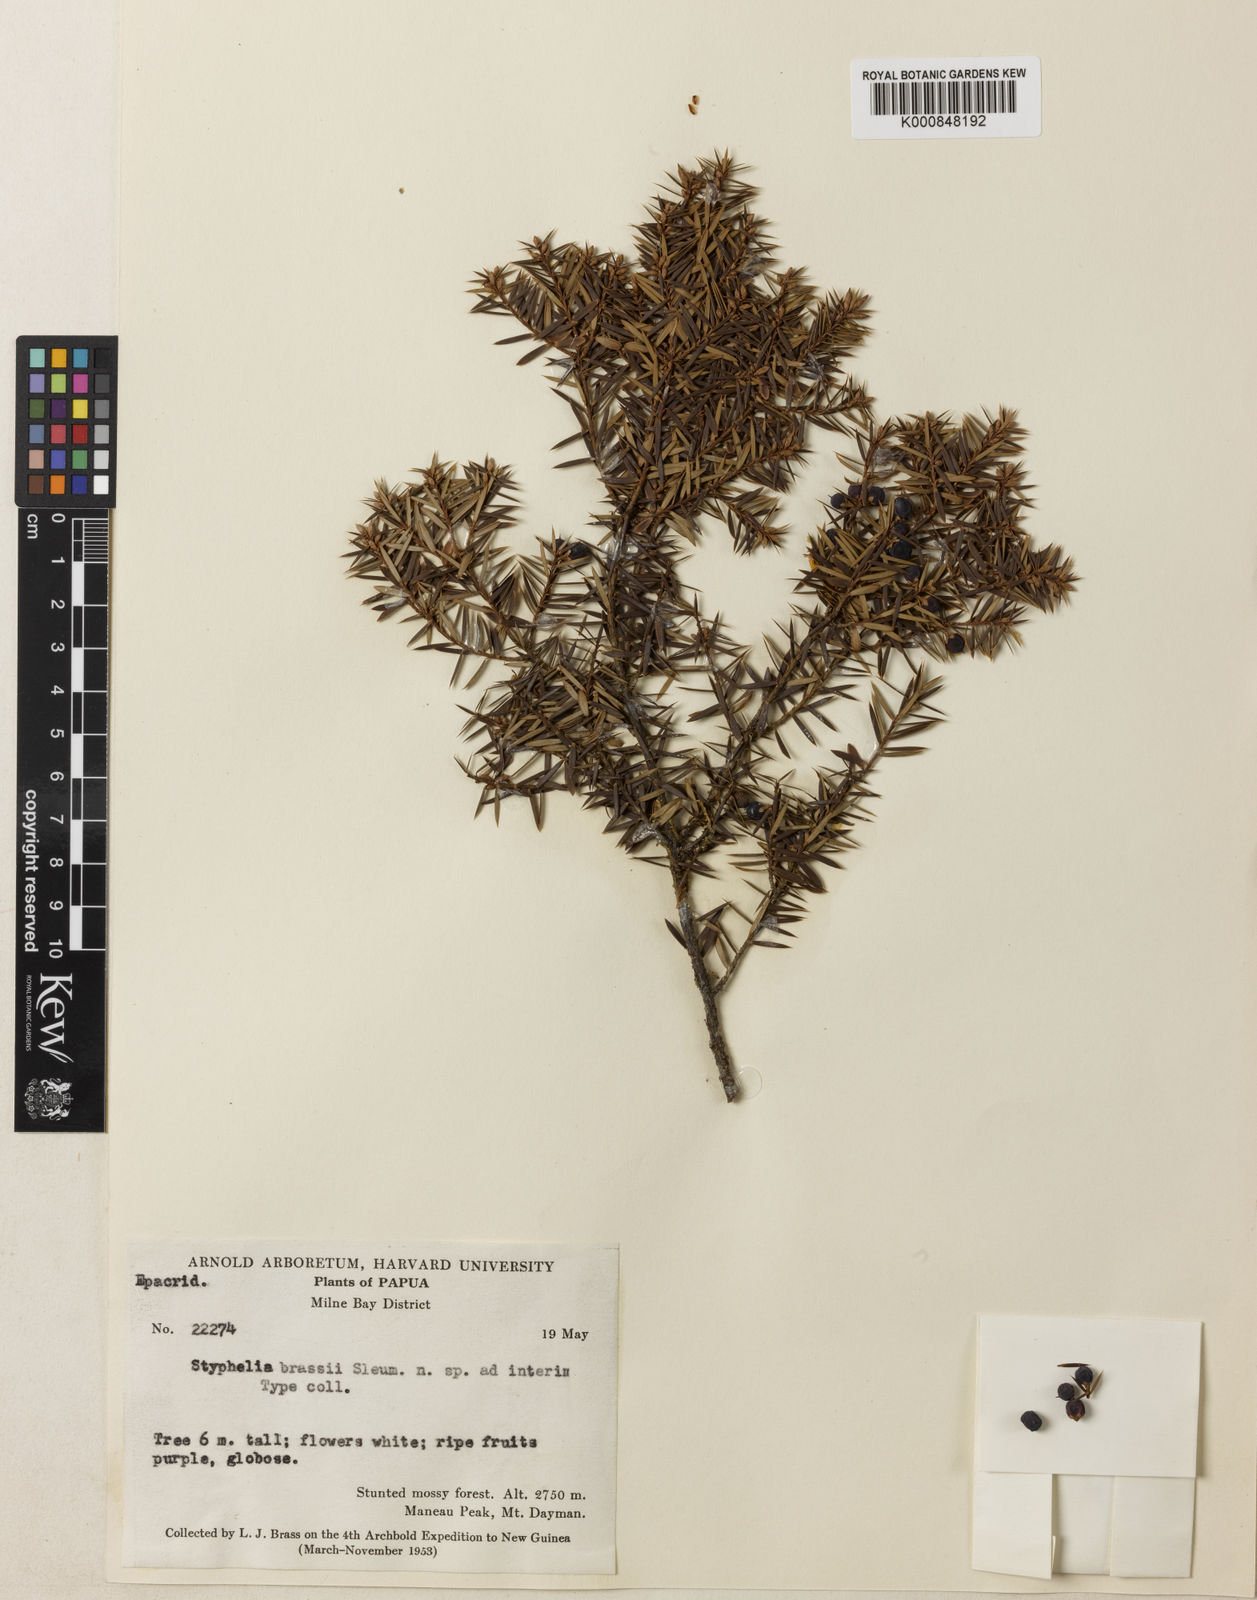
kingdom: Plantae
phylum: Tracheophyta
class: Magnoliopsida
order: Ericales
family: Ericaceae
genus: Leptecophylla
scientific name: Leptecophylla brassii
